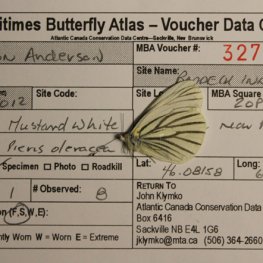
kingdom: Animalia
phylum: Arthropoda
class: Insecta
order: Lepidoptera
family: Pieridae
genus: Pieris
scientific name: Pieris oleracea
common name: Mustard White
